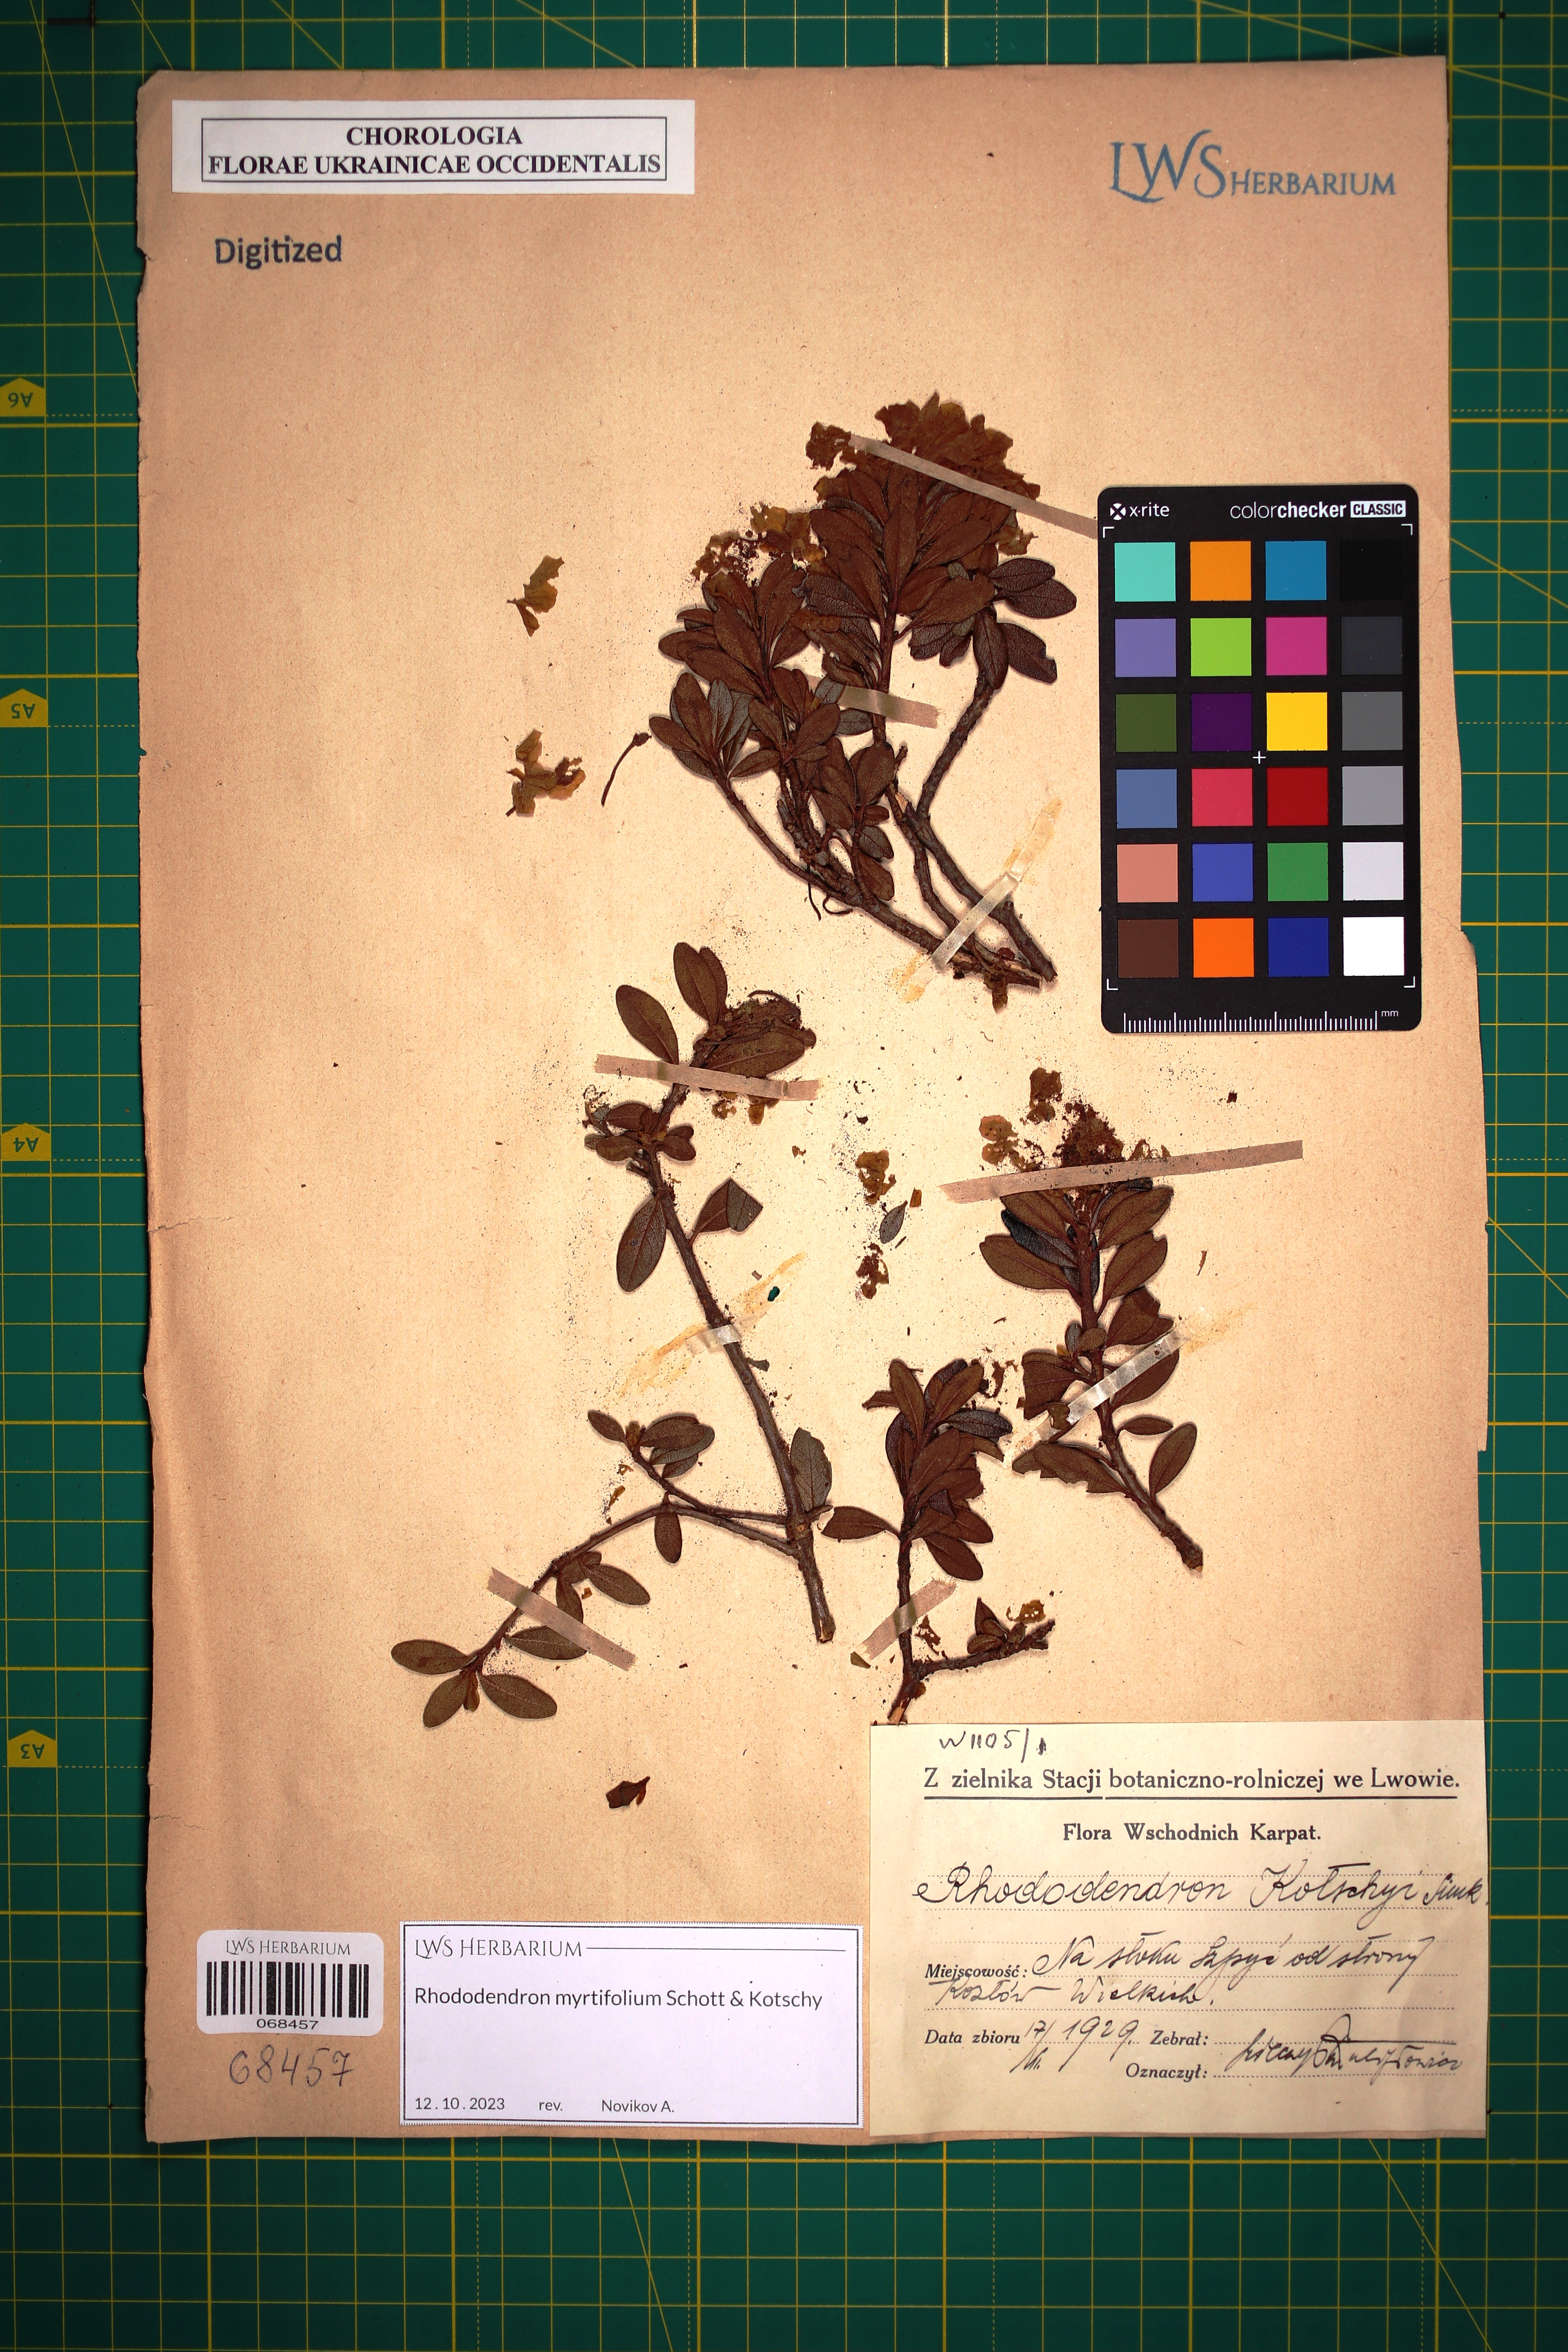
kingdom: Plantae
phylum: Tracheophyta
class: Magnoliopsida
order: Ericales
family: Ericaceae
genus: Rhododendron
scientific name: Rhododendron kotschyi
